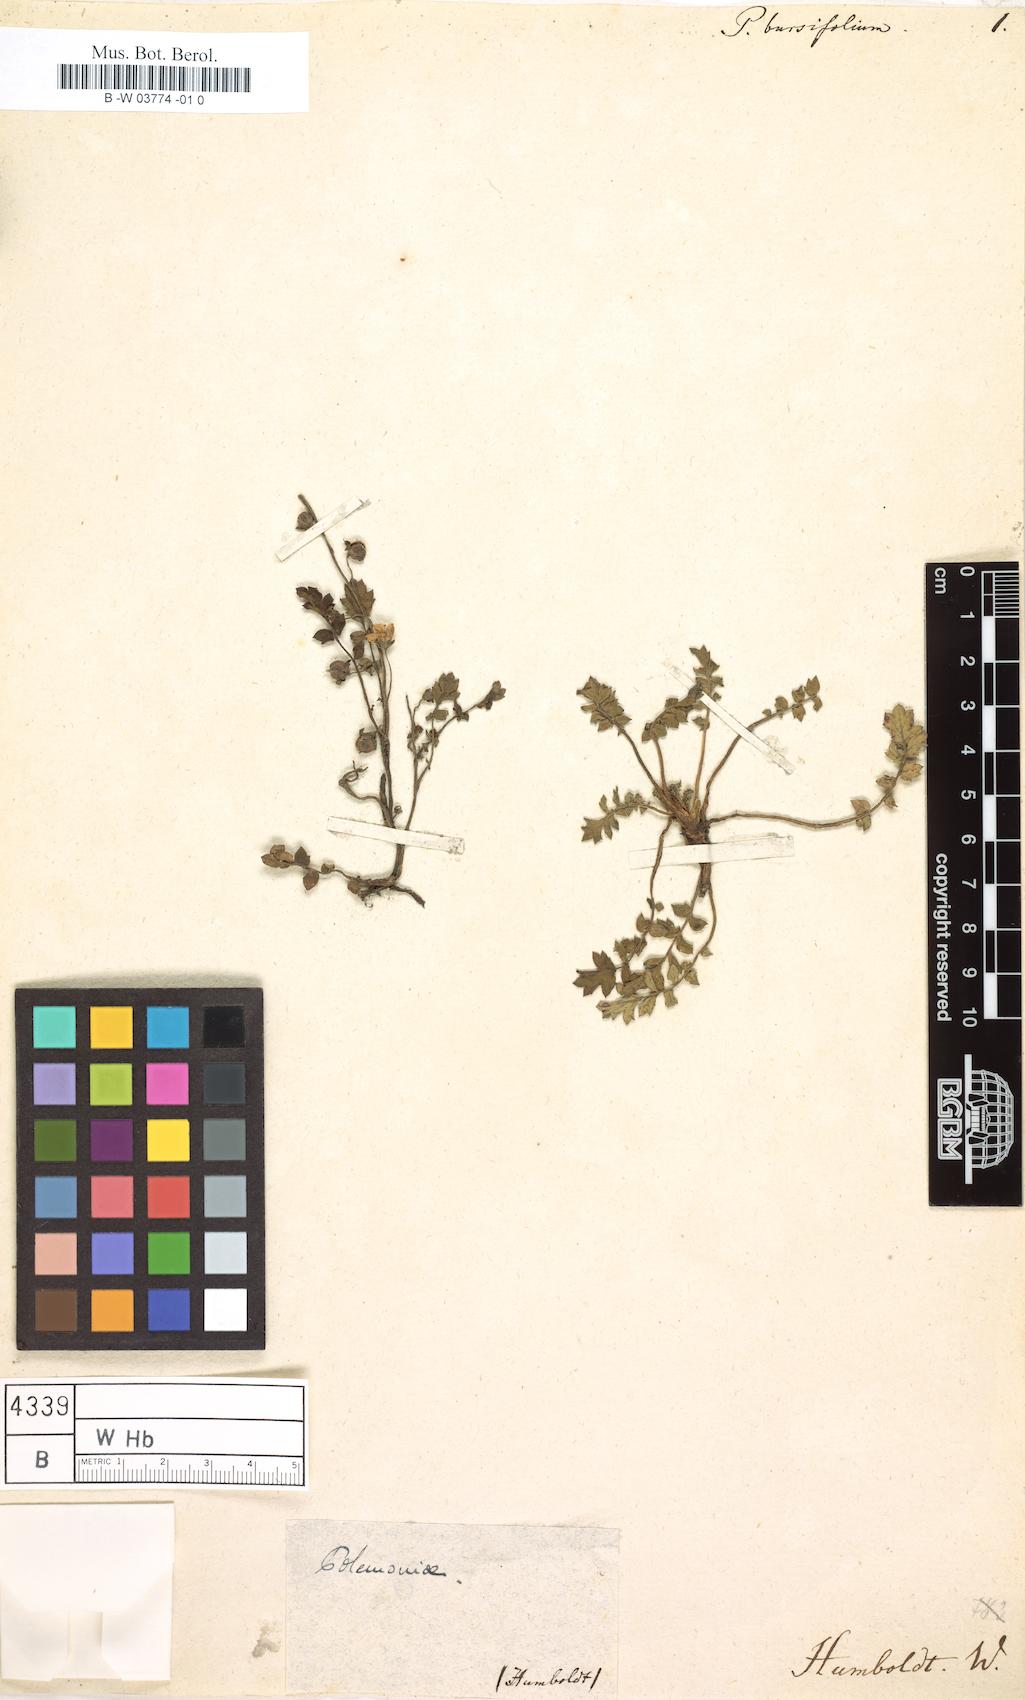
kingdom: Plantae
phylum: Tracheophyta
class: Magnoliopsida
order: Boraginales
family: Hydrophyllaceae
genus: Phacelia
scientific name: Phacelia platycarpa
